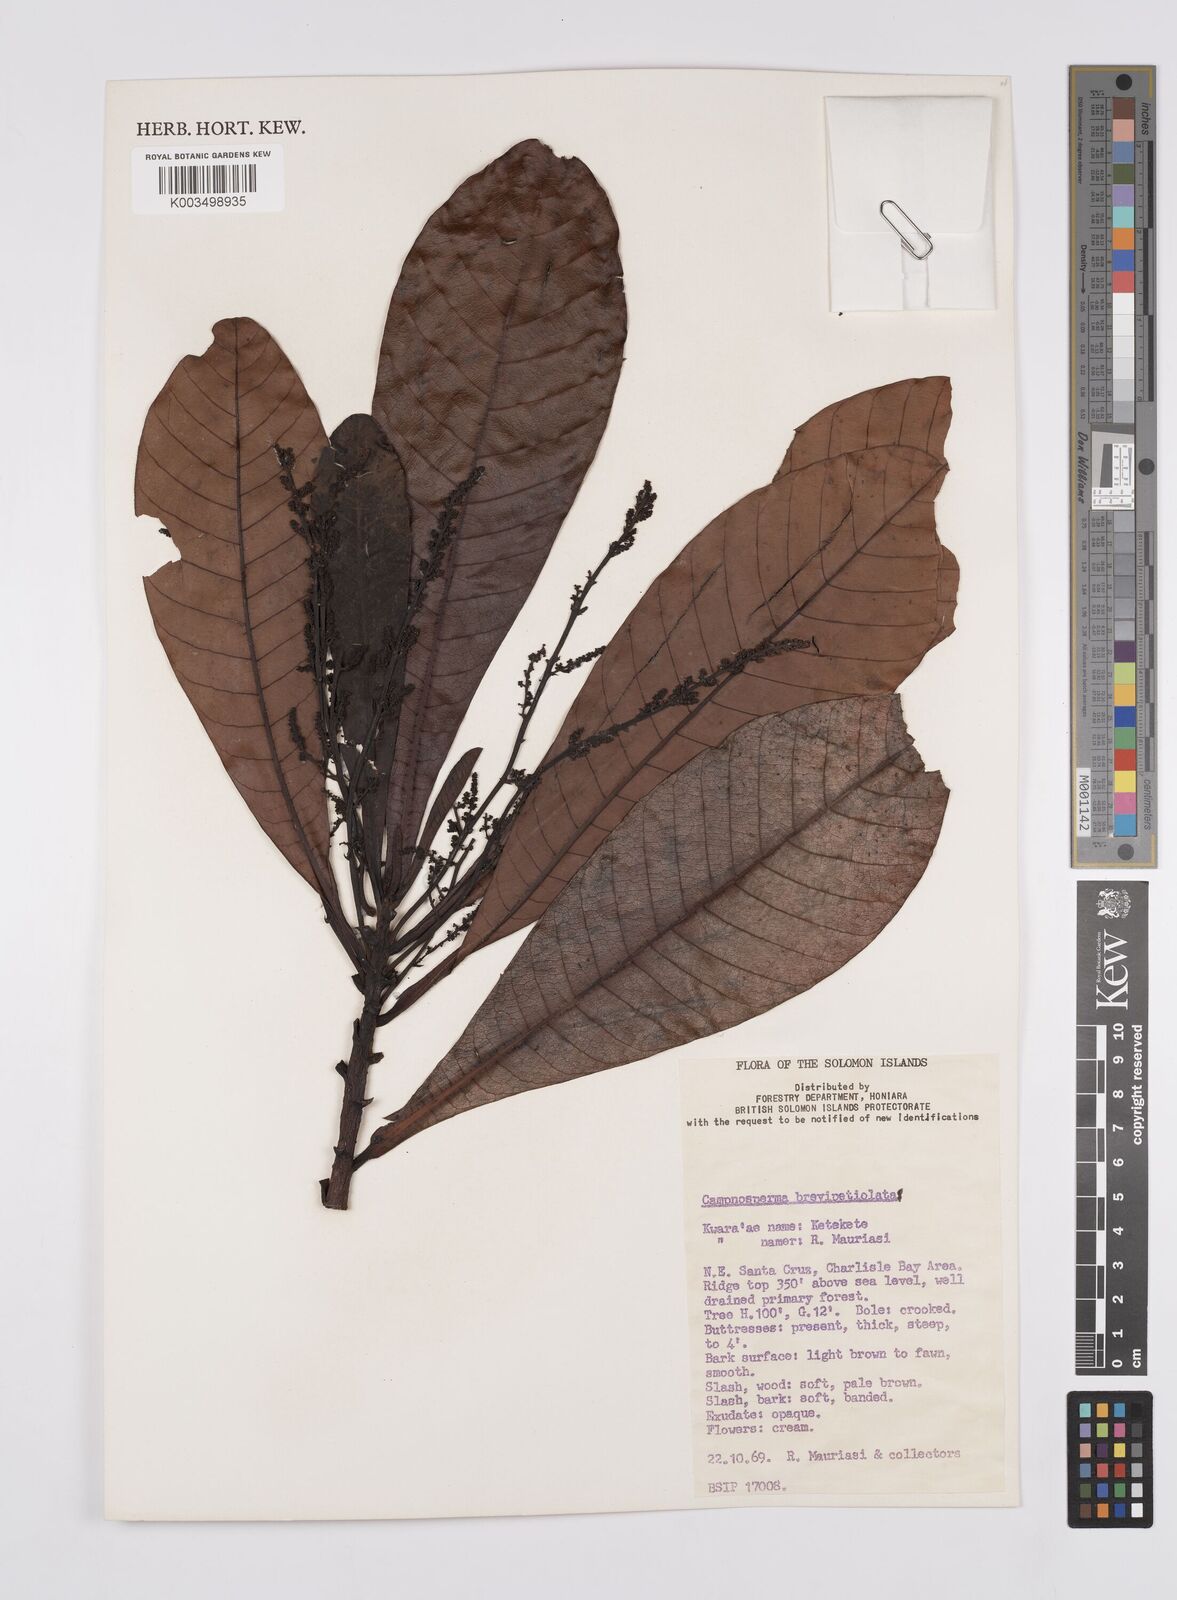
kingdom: Plantae
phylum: Tracheophyta
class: Magnoliopsida
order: Sapindales
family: Anacardiaceae
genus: Campnosperma
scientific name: Campnosperma brevipetiolatum
